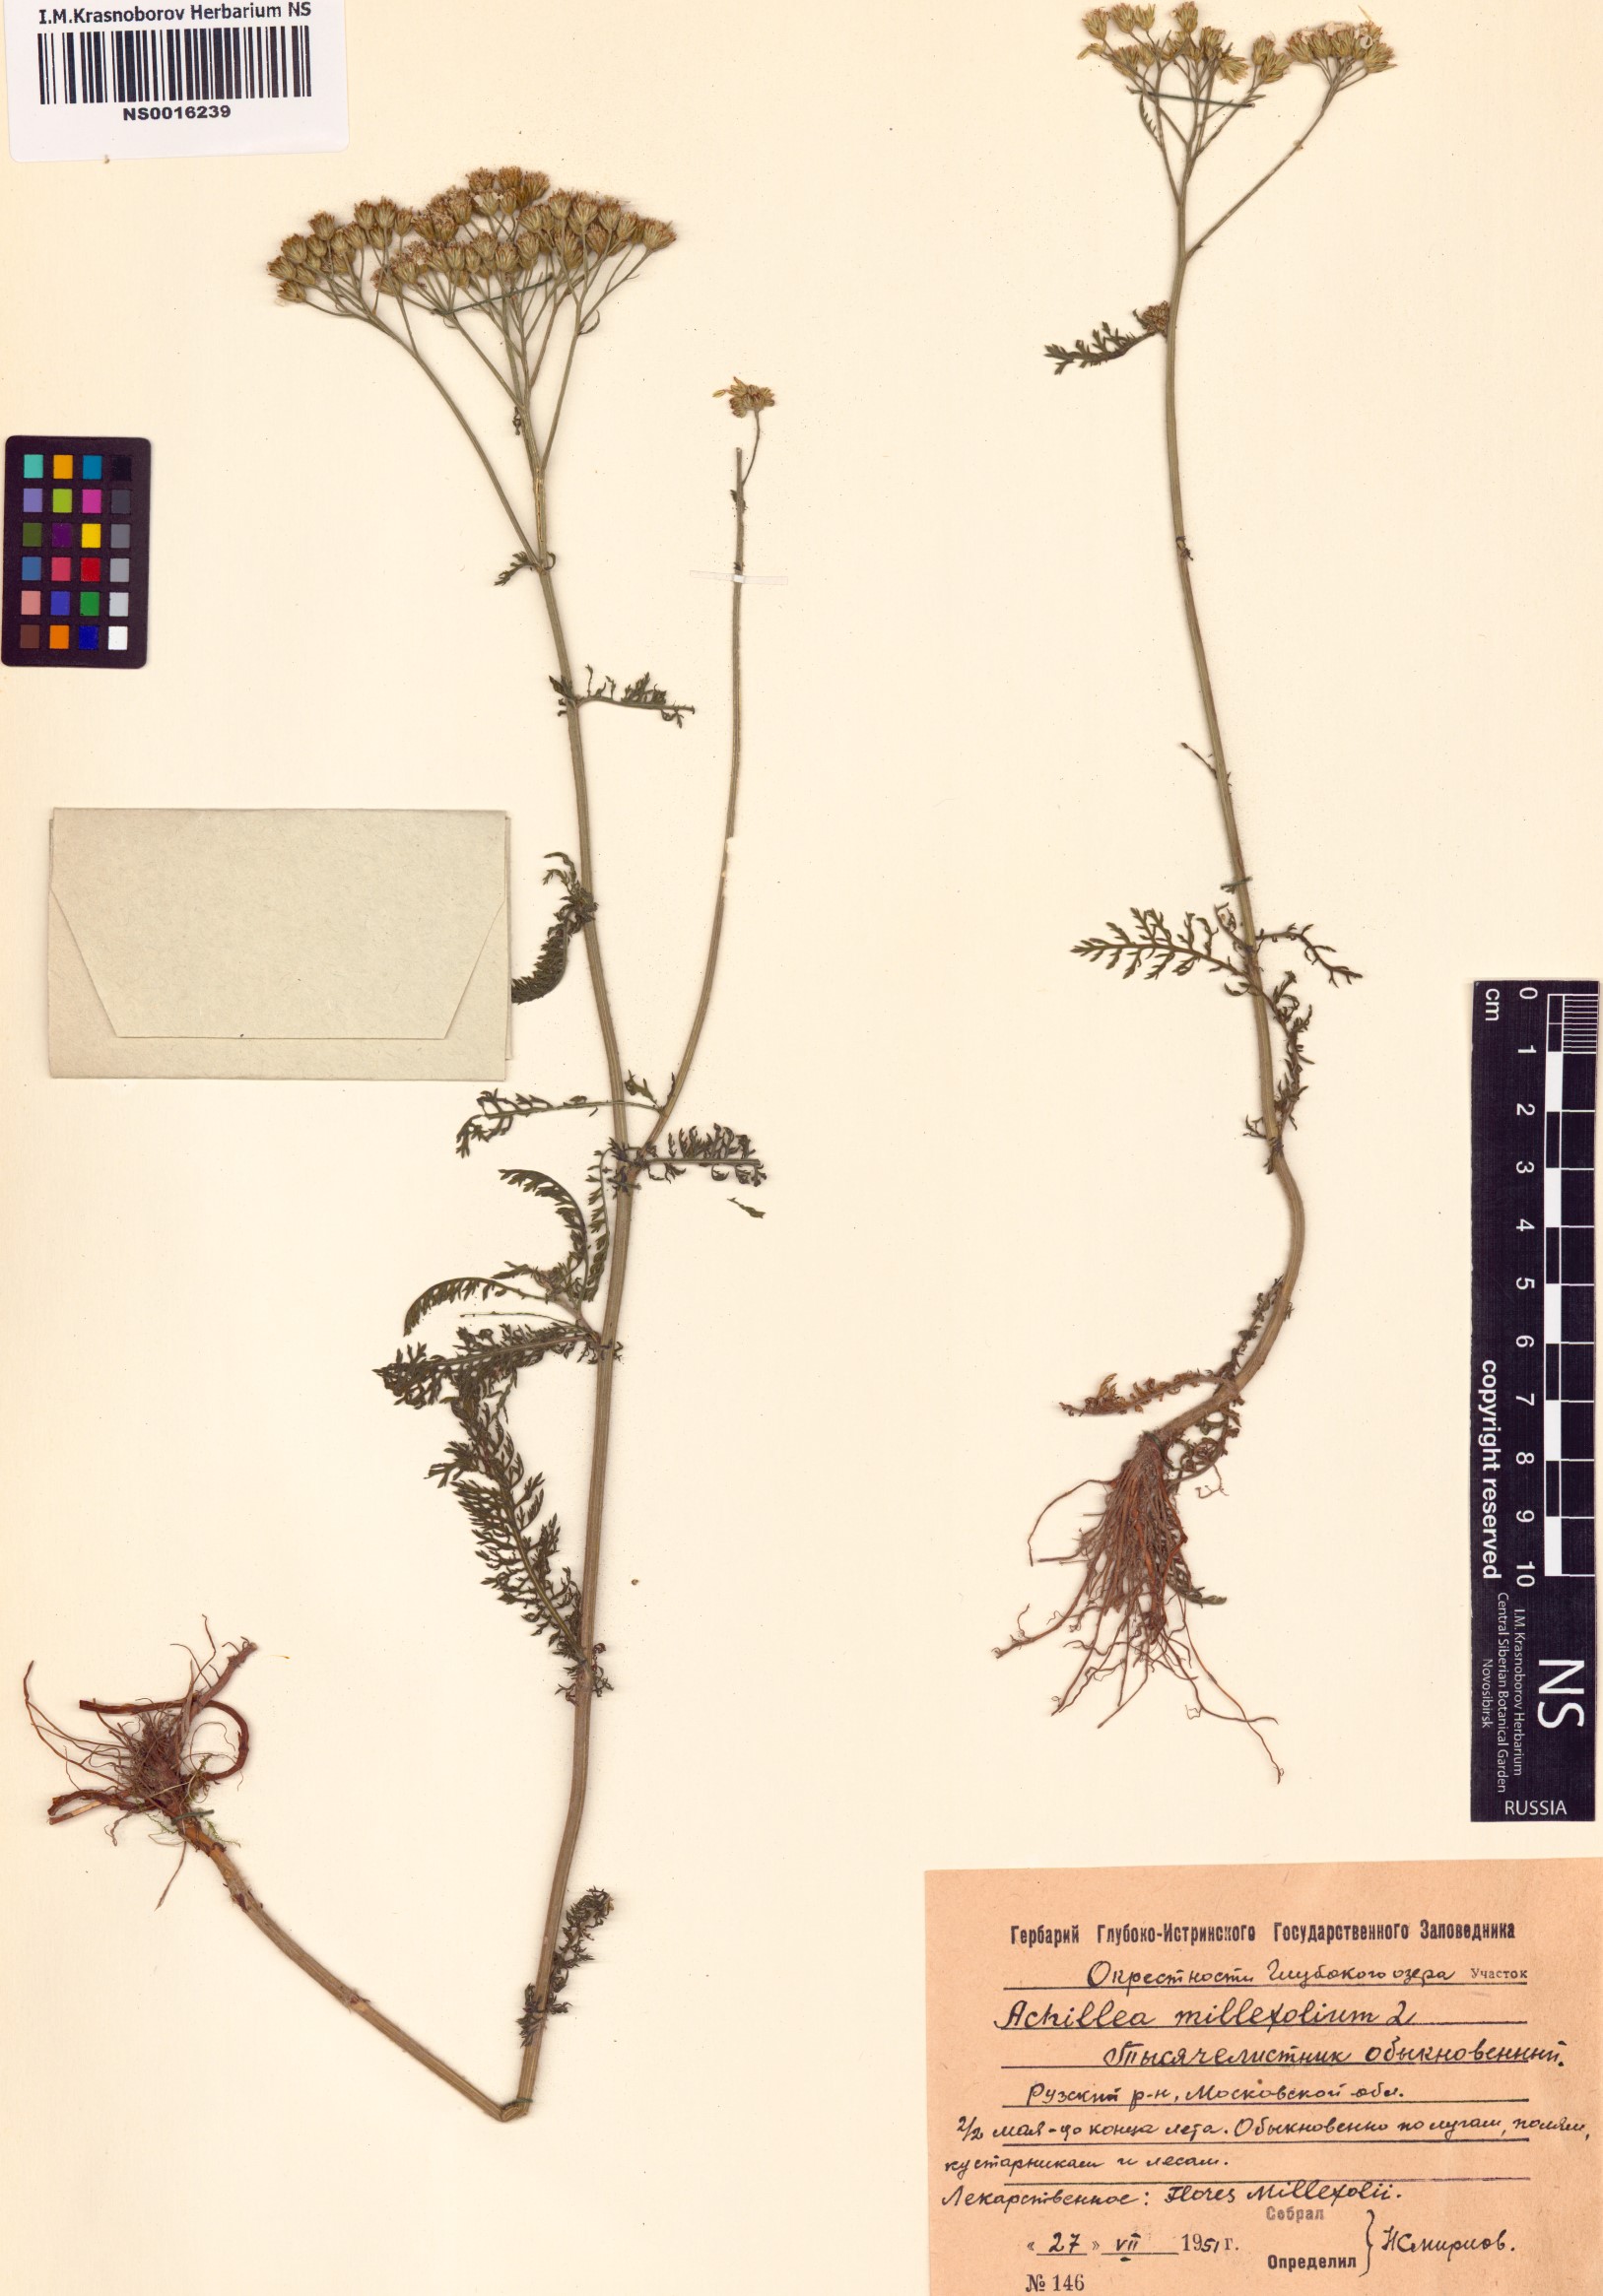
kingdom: Plantae
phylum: Tracheophyta
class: Magnoliopsida
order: Asterales
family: Asteraceae
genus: Achillea
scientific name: Achillea millefolium
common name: Yarrow
